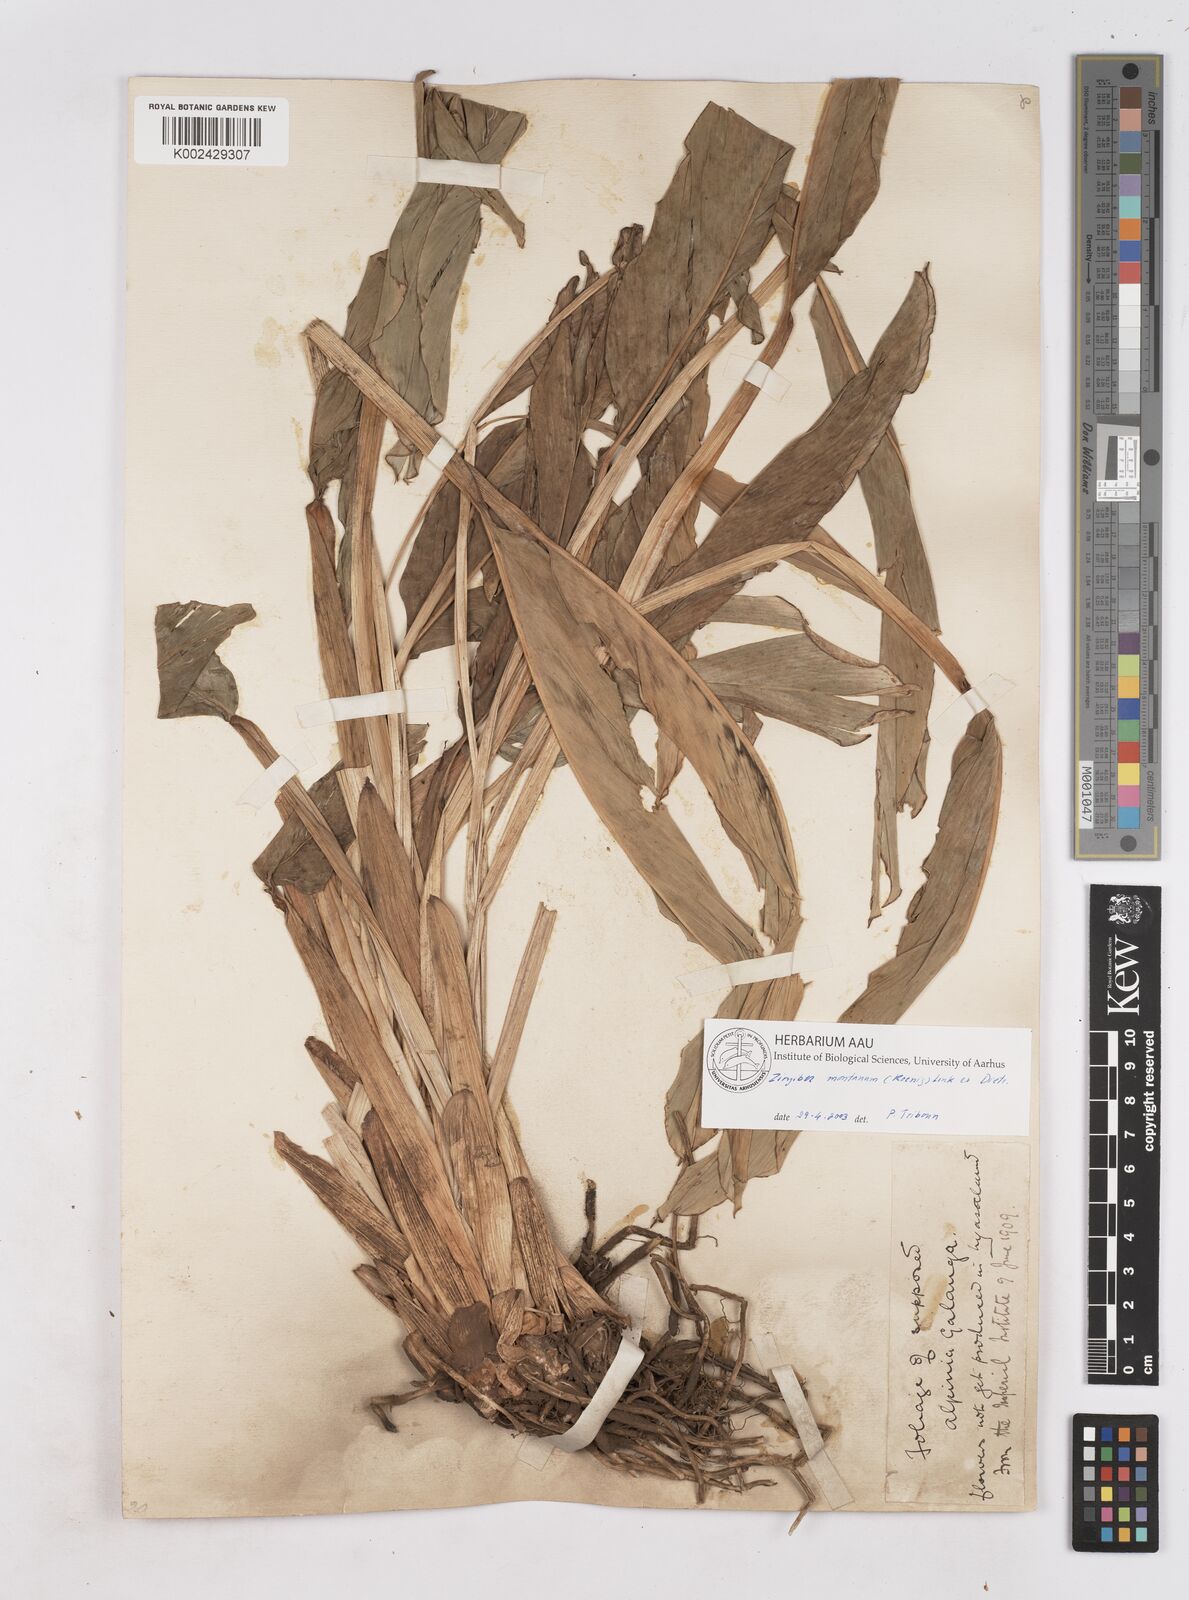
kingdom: Plantae
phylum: Tracheophyta
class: Liliopsida
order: Zingiberales
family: Zingiberaceae
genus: Zingiber
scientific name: Zingiber montanum
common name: Bengal ginger
